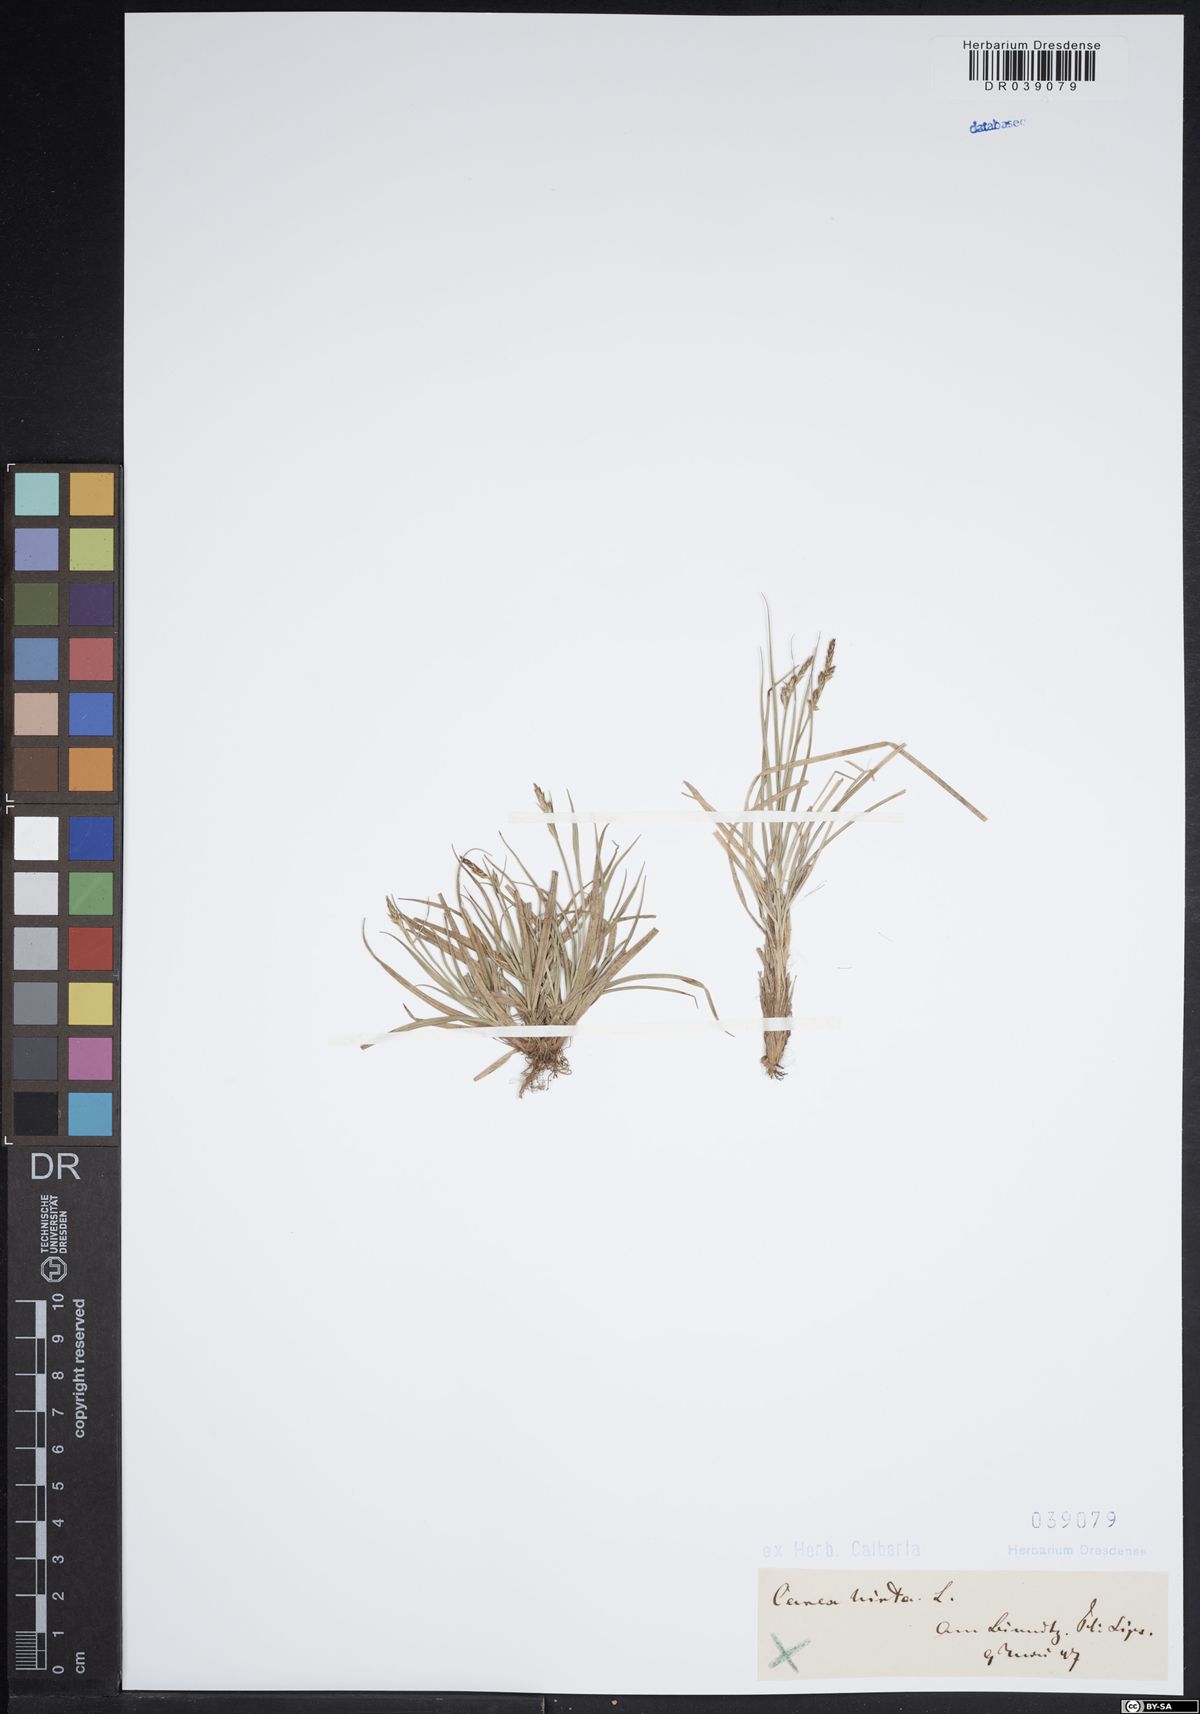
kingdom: Plantae
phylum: Tracheophyta
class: Liliopsida
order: Poales
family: Cyperaceae
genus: Carex
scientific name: Carex hirta
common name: Hairy sedge
